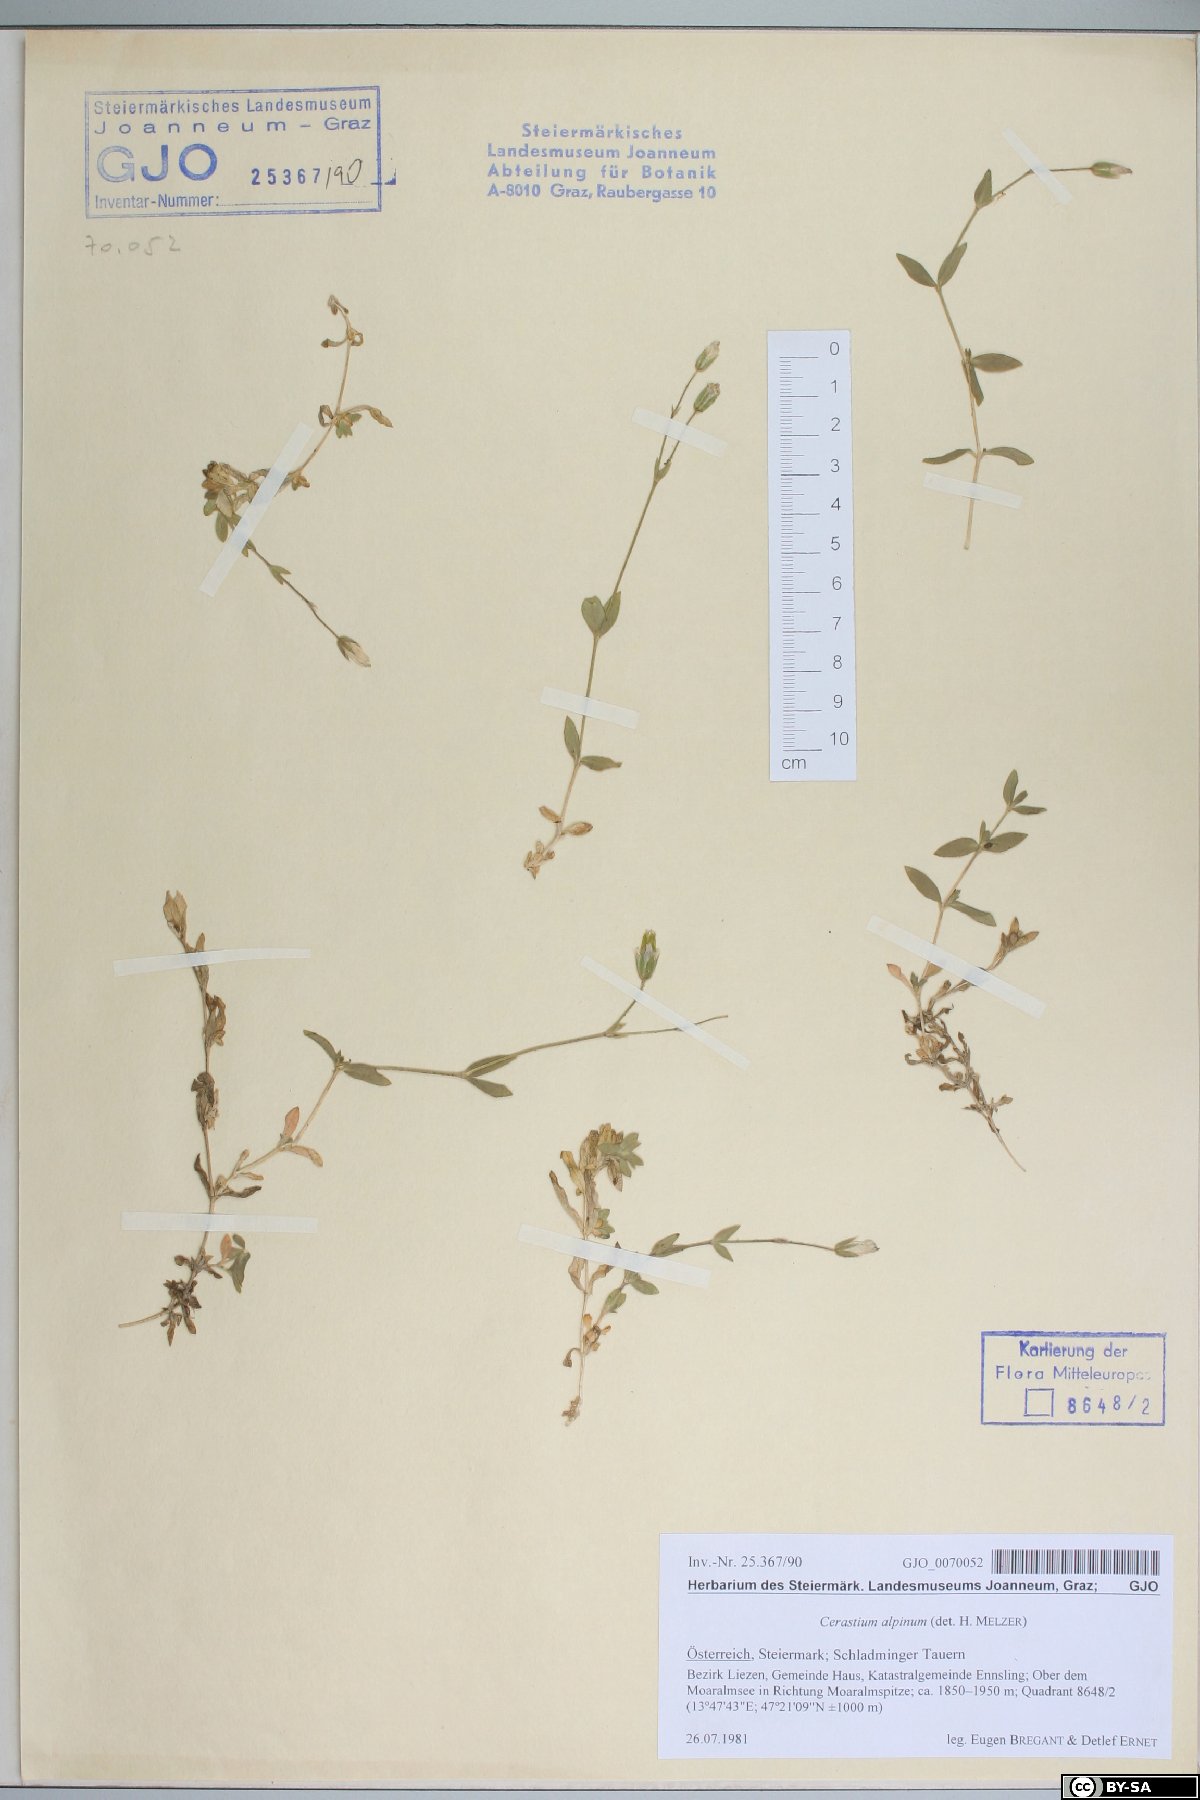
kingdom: Plantae
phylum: Tracheophyta
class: Magnoliopsida
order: Caryophyllales
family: Caryophyllaceae
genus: Cerastium
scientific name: Cerastium alpinum
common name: Alpine mouse-ear
